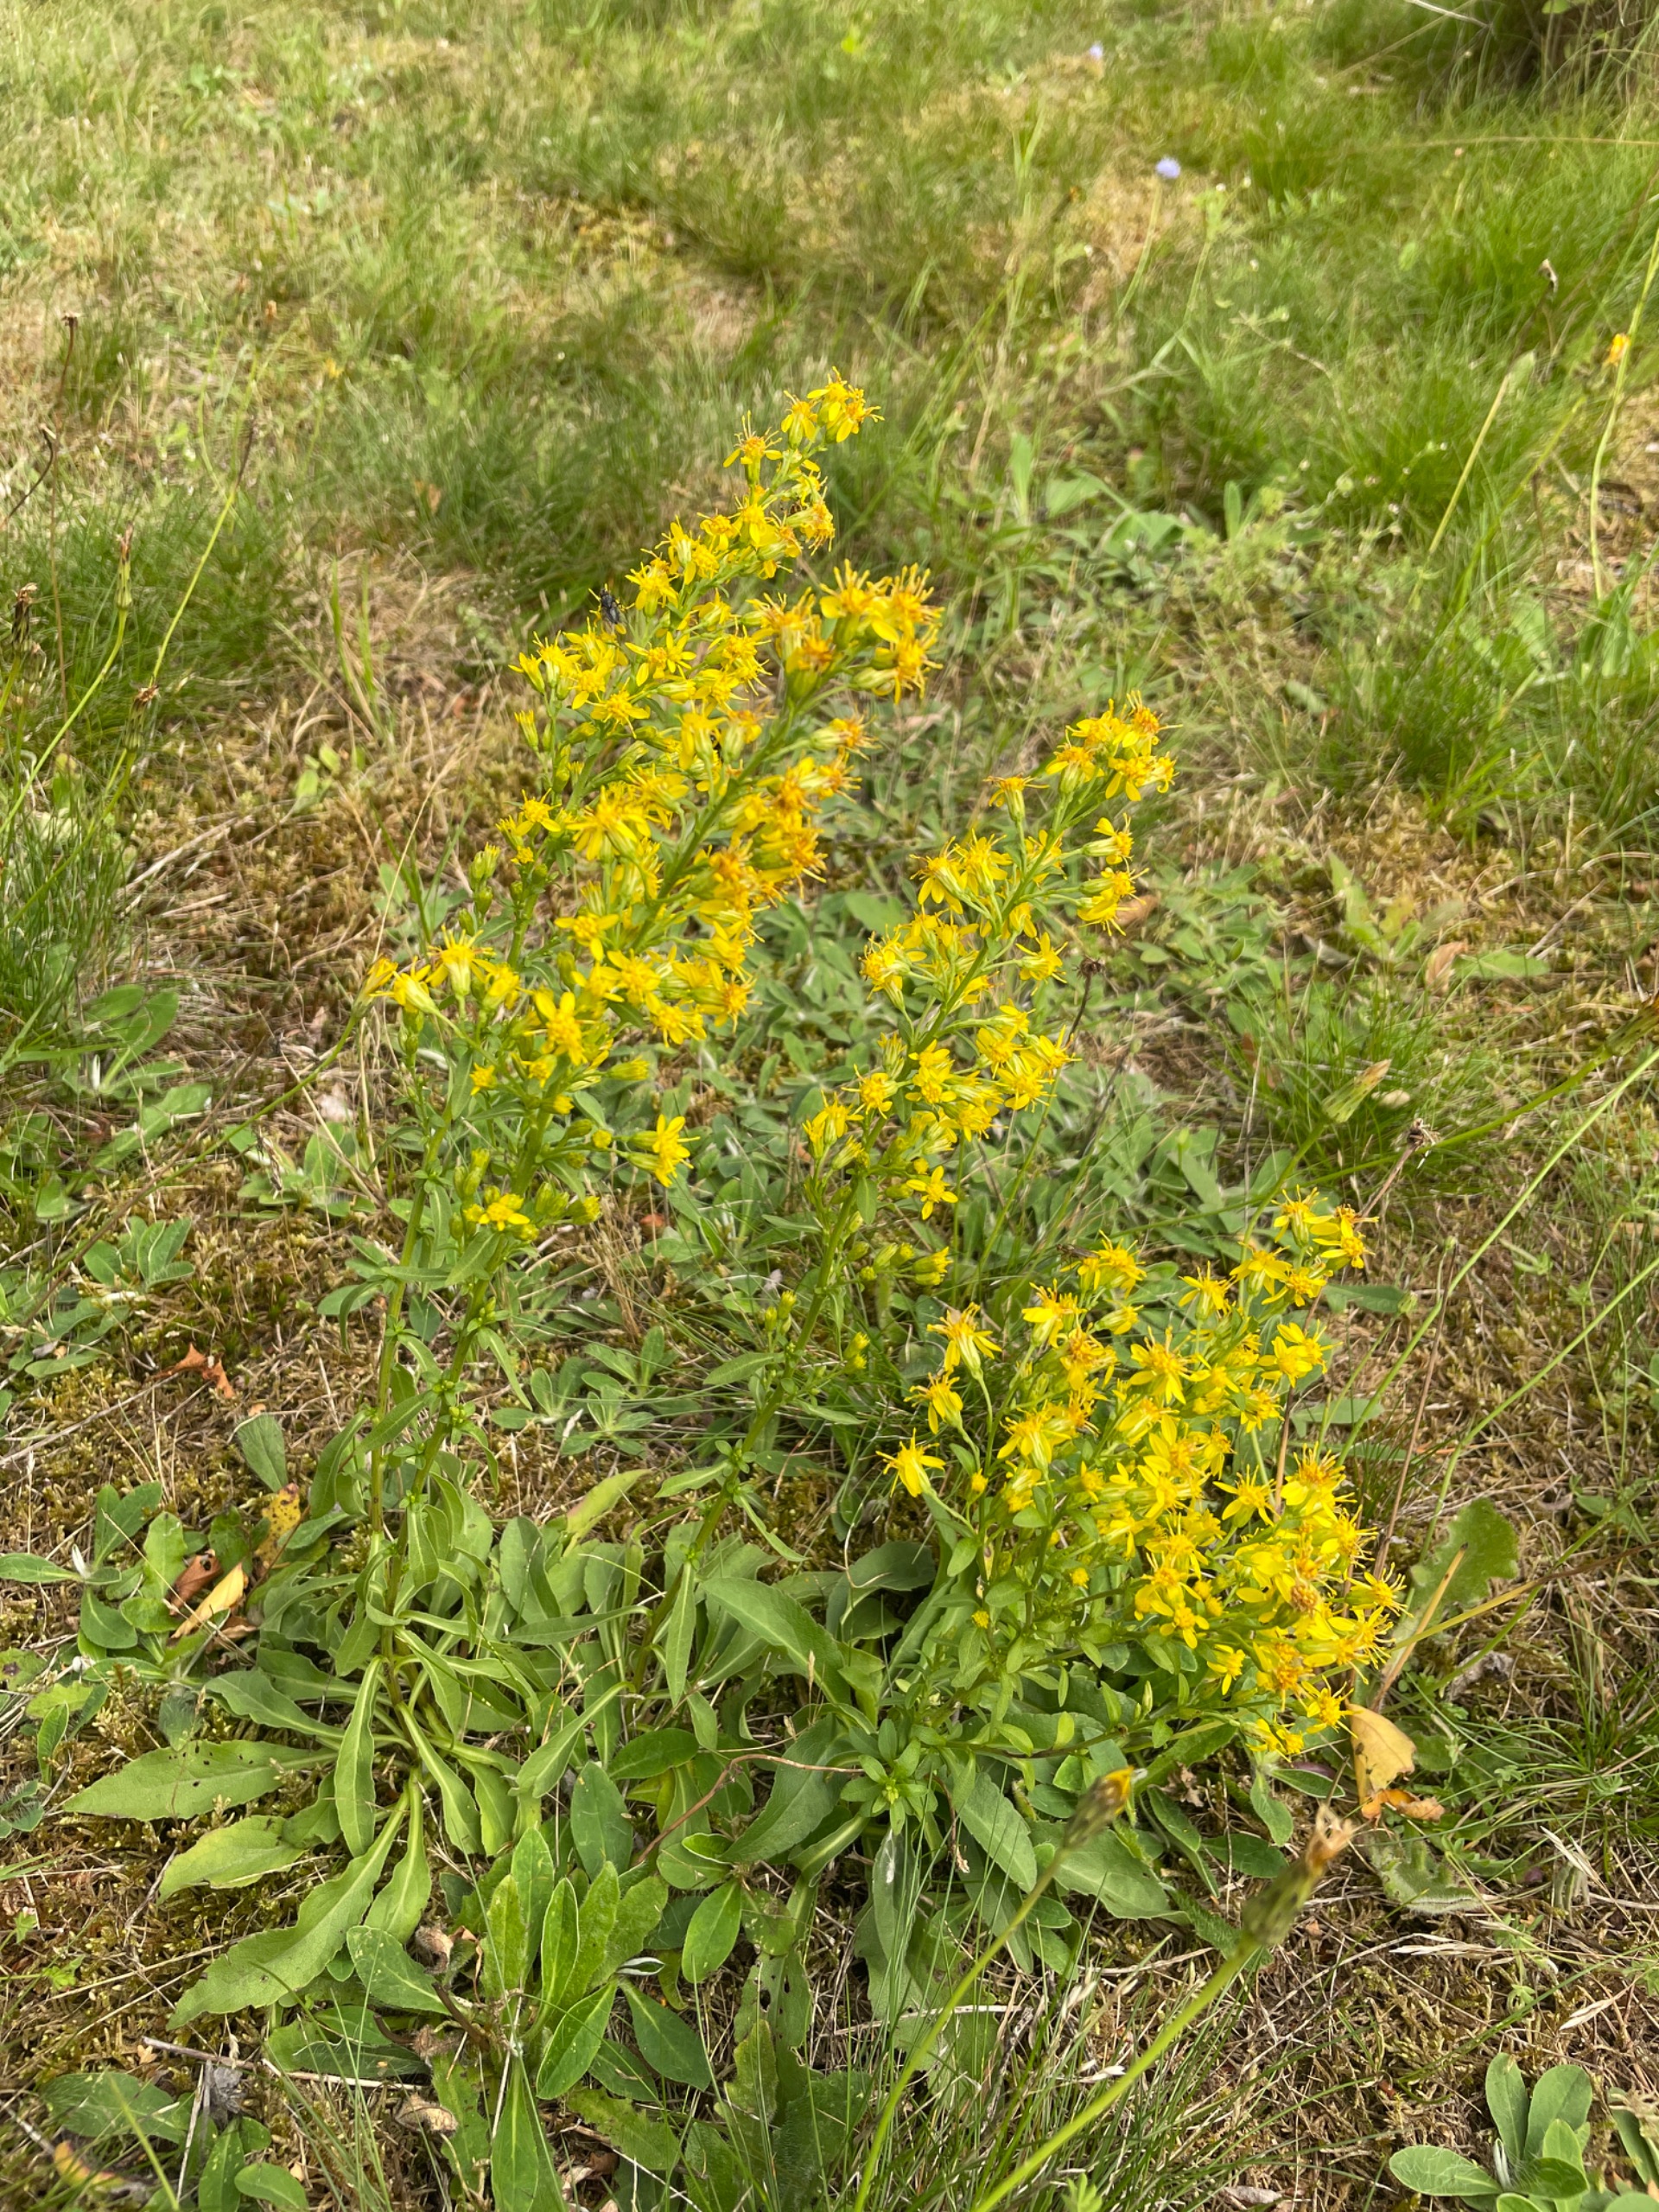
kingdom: Plantae
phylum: Tracheophyta
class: Magnoliopsida
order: Asterales
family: Asteraceae
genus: Solidago
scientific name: Solidago virgaurea
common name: Almindelig gyldenris
